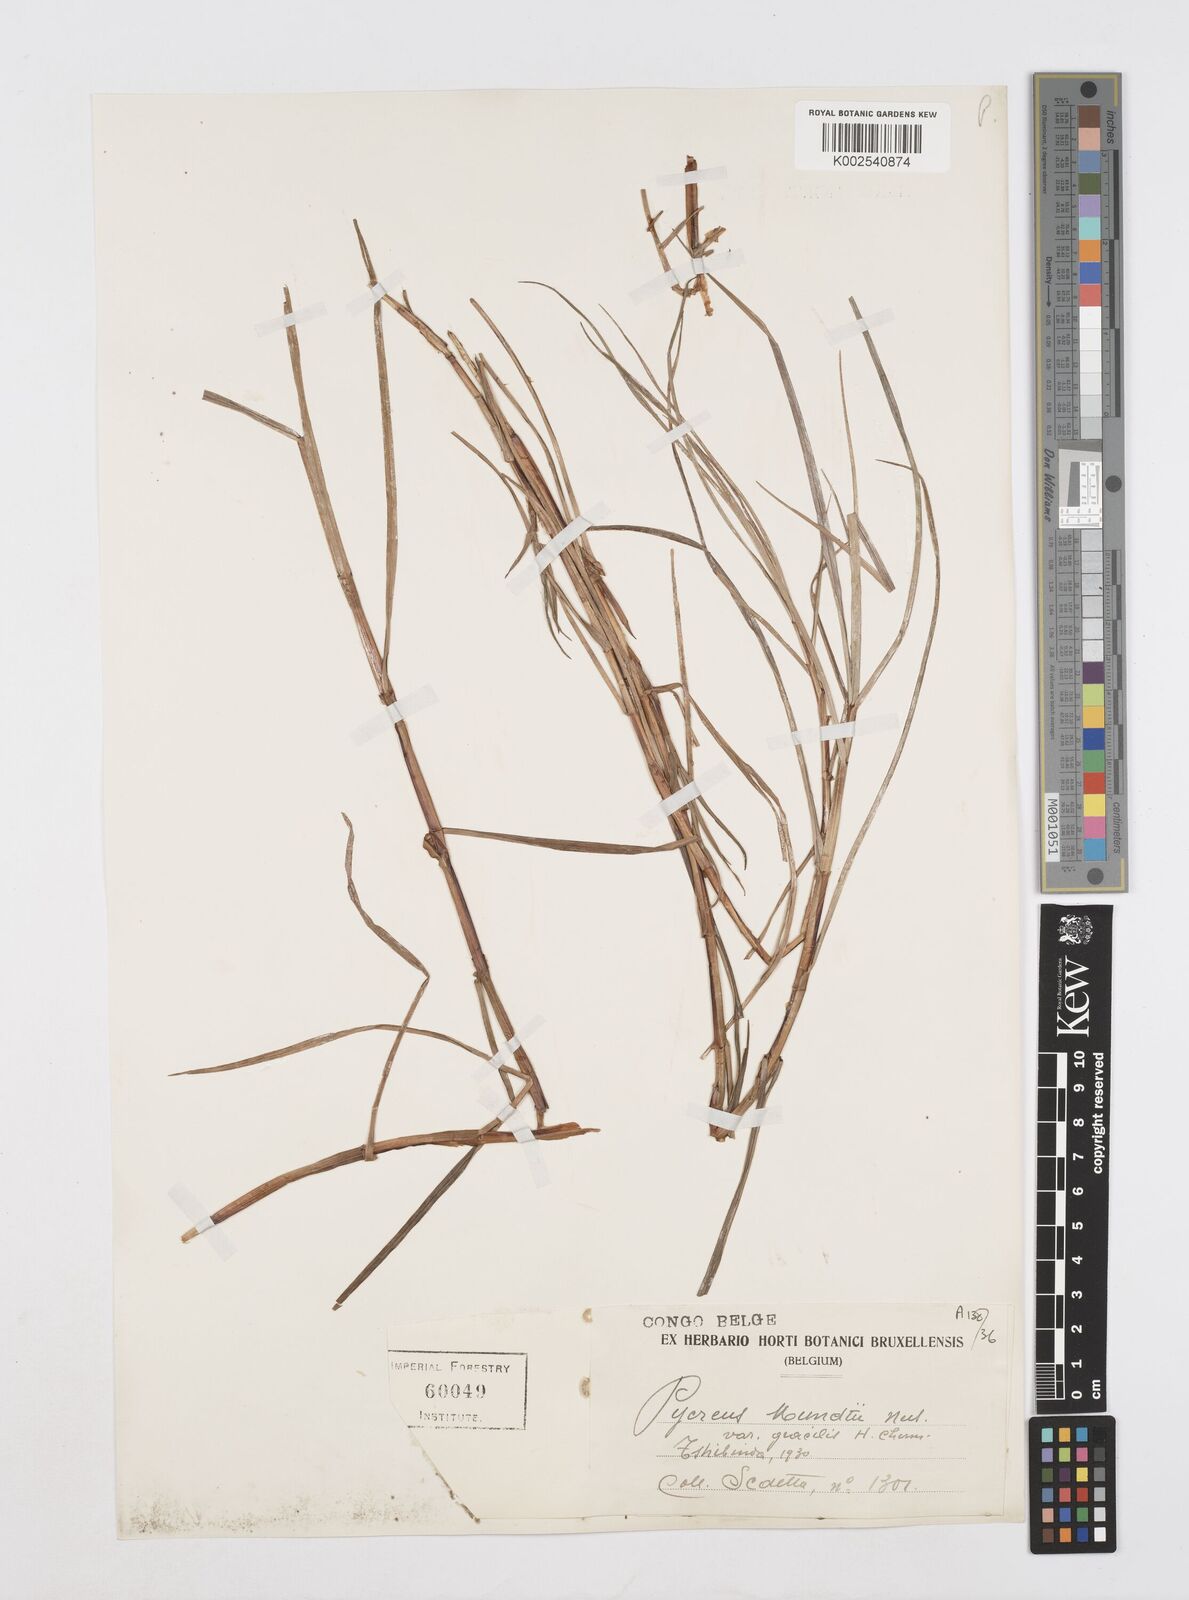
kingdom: Plantae
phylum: Tracheophyta
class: Liliopsida
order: Poales
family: Cyperaceae
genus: Cyperus
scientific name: Cyperus mundii
